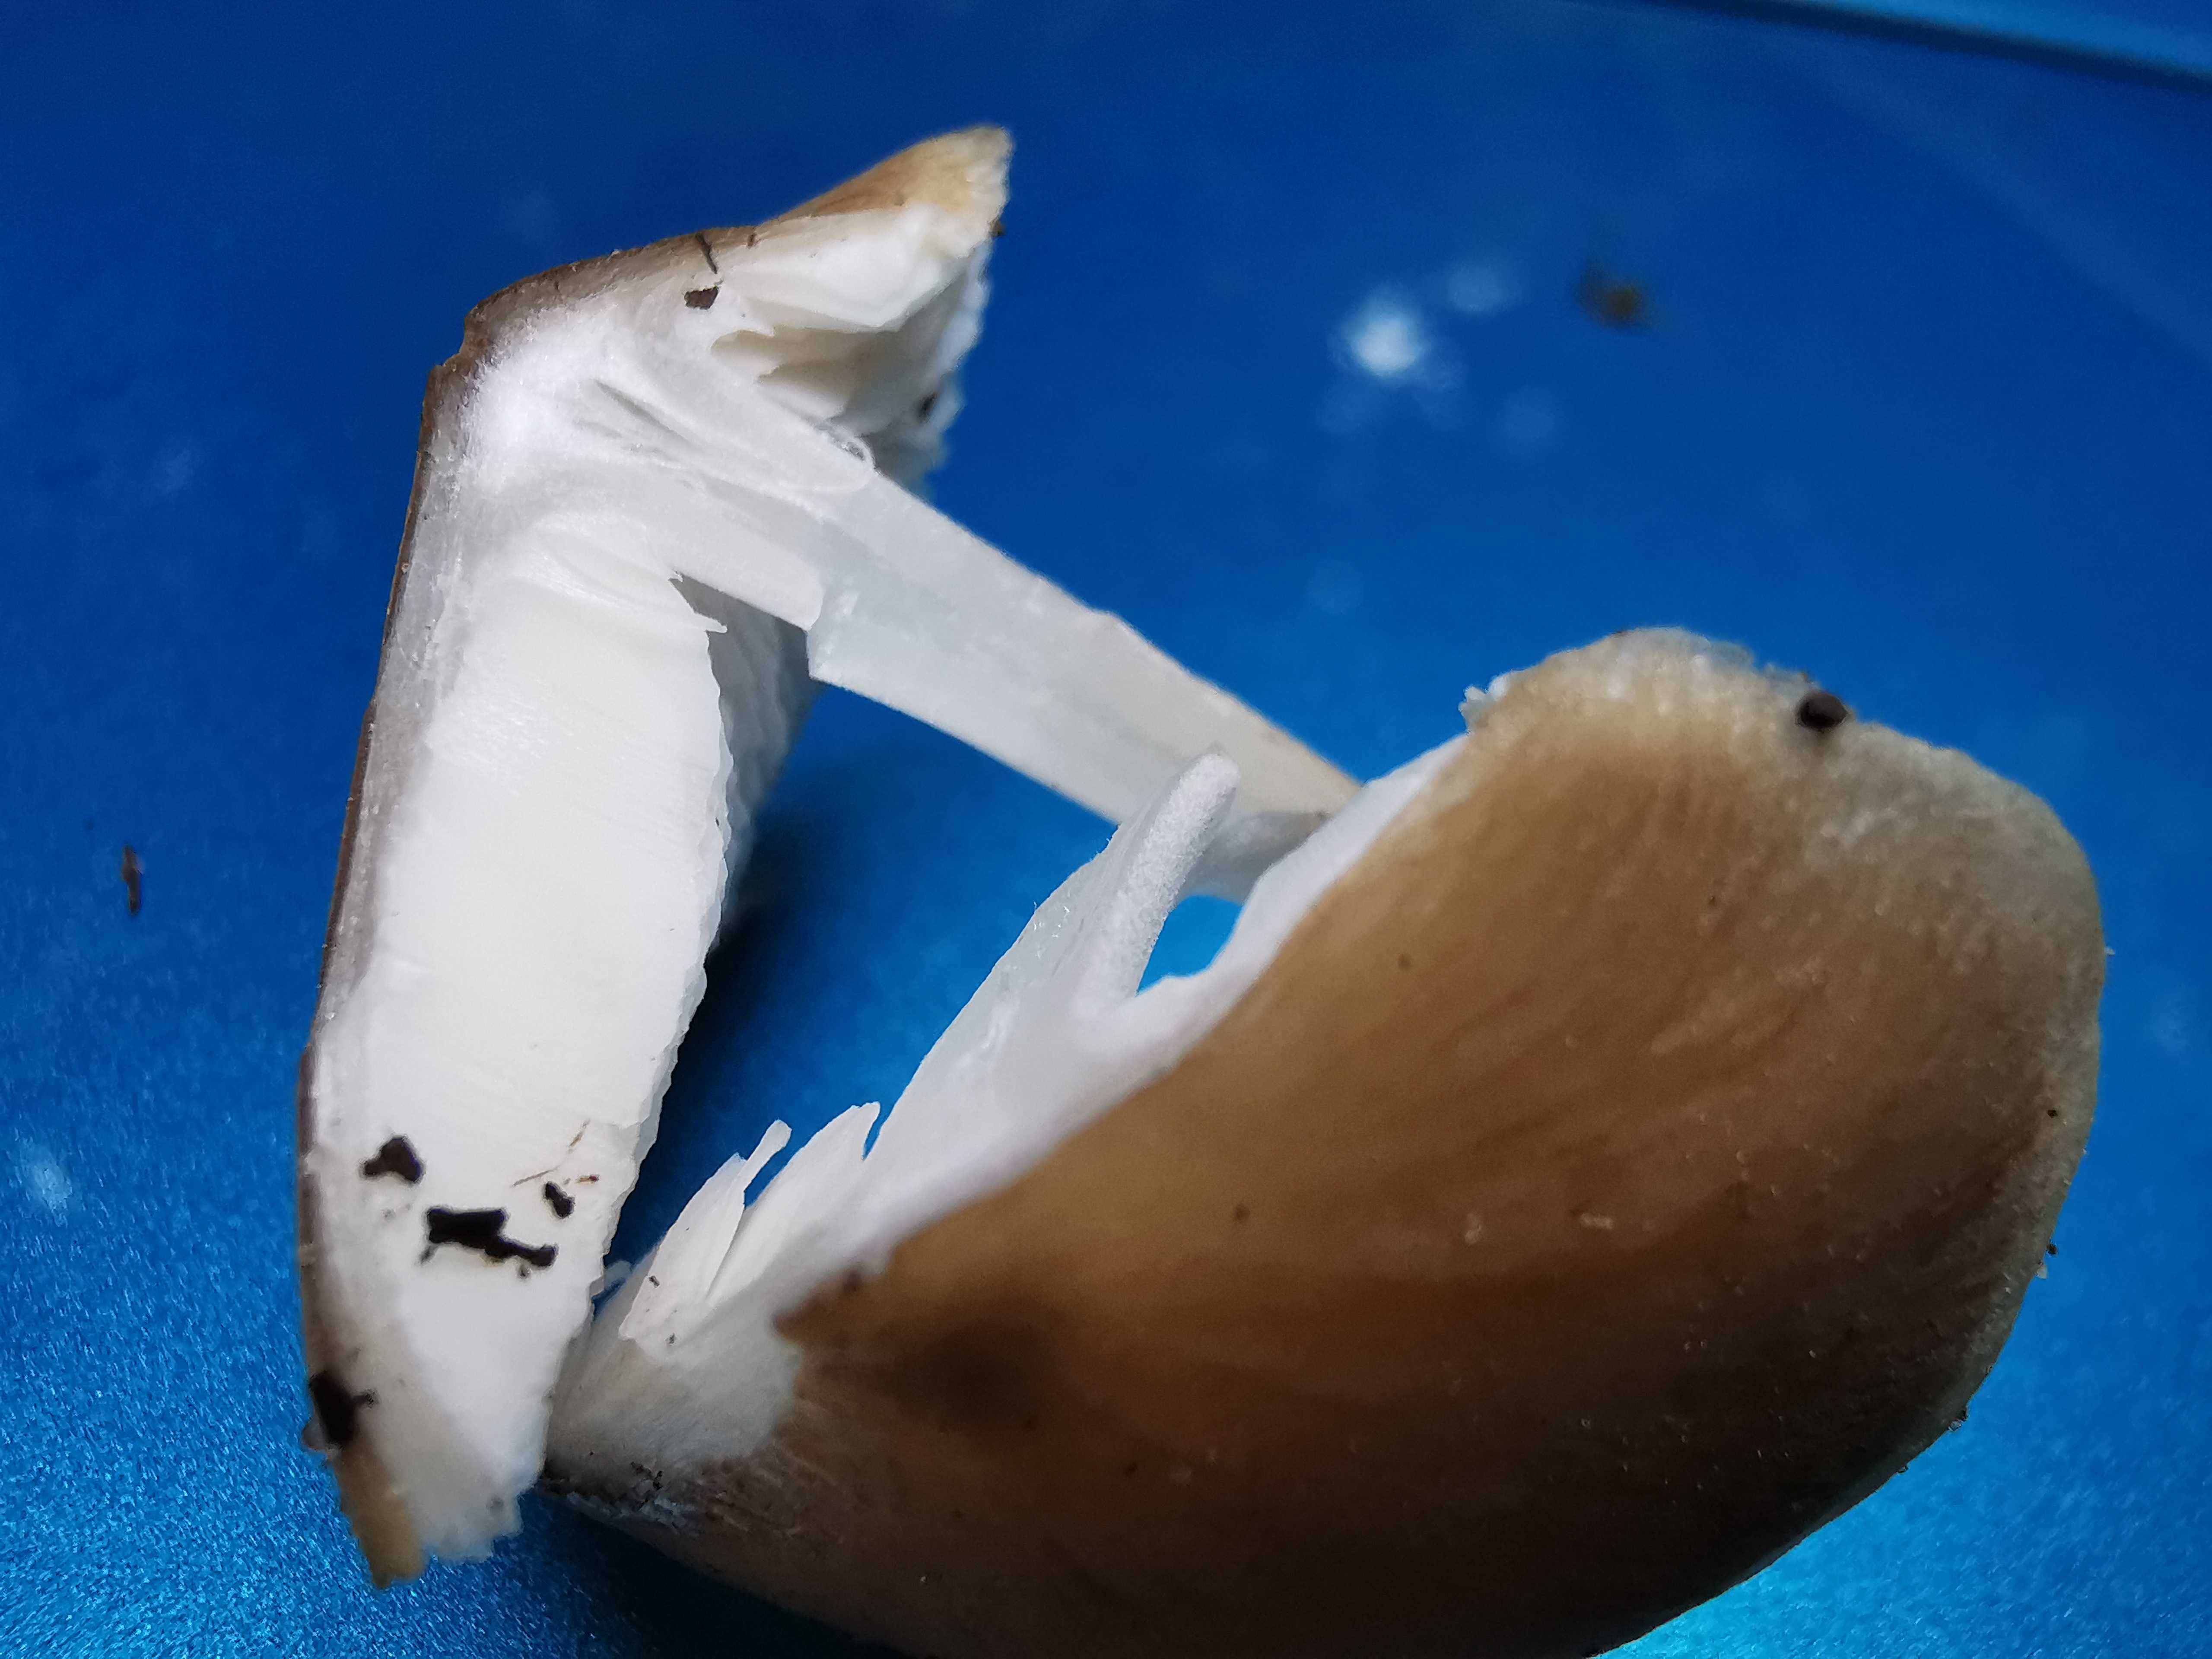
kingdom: Fungi
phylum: Basidiomycota
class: Agaricomycetes
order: Agaricales
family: Physalacriaceae
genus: Hymenopellis
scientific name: Hymenopellis radicata
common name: almindelig pælerodshat
